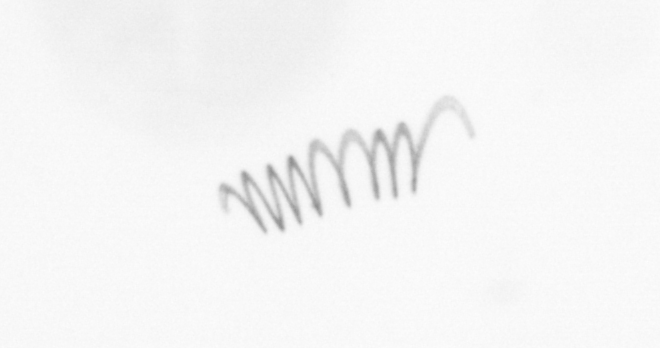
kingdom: Chromista
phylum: Ochrophyta
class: Bacillariophyceae
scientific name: Bacillariophyceae
